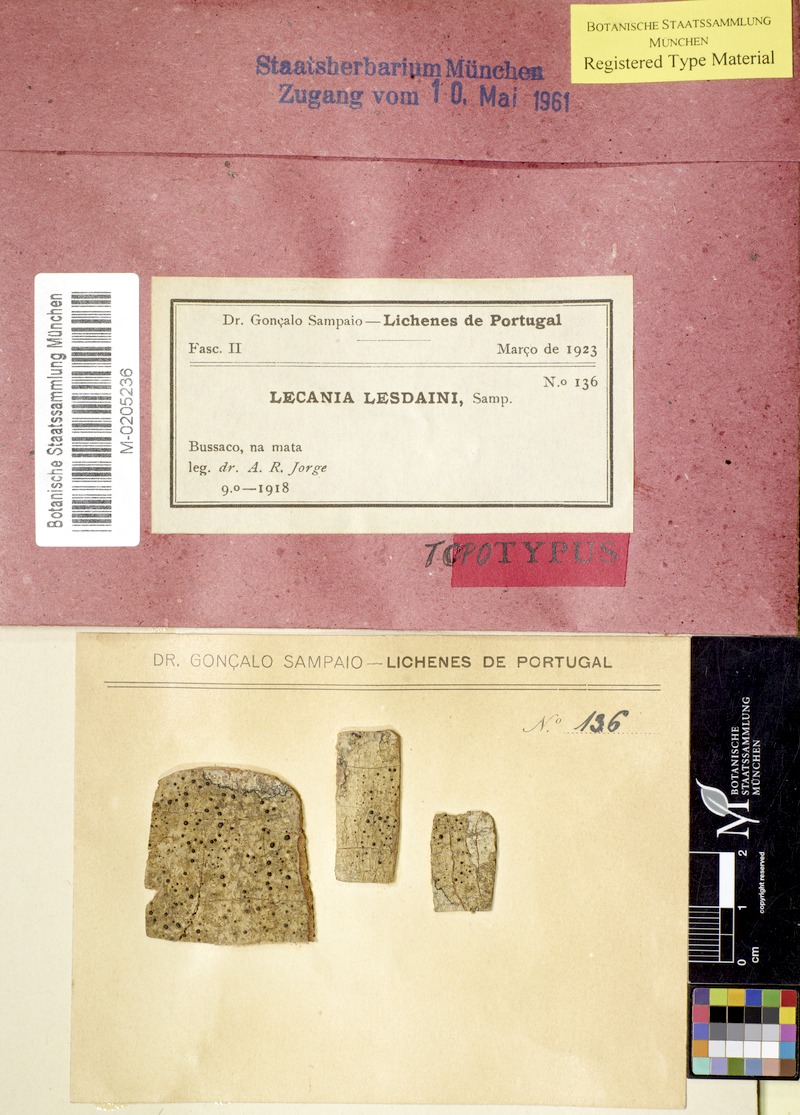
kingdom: Fungi
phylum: Ascomycota
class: Lecanoromycetes
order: Lecanorales
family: Ramalinaceae
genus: Lecania
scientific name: Lecania lesdainii
